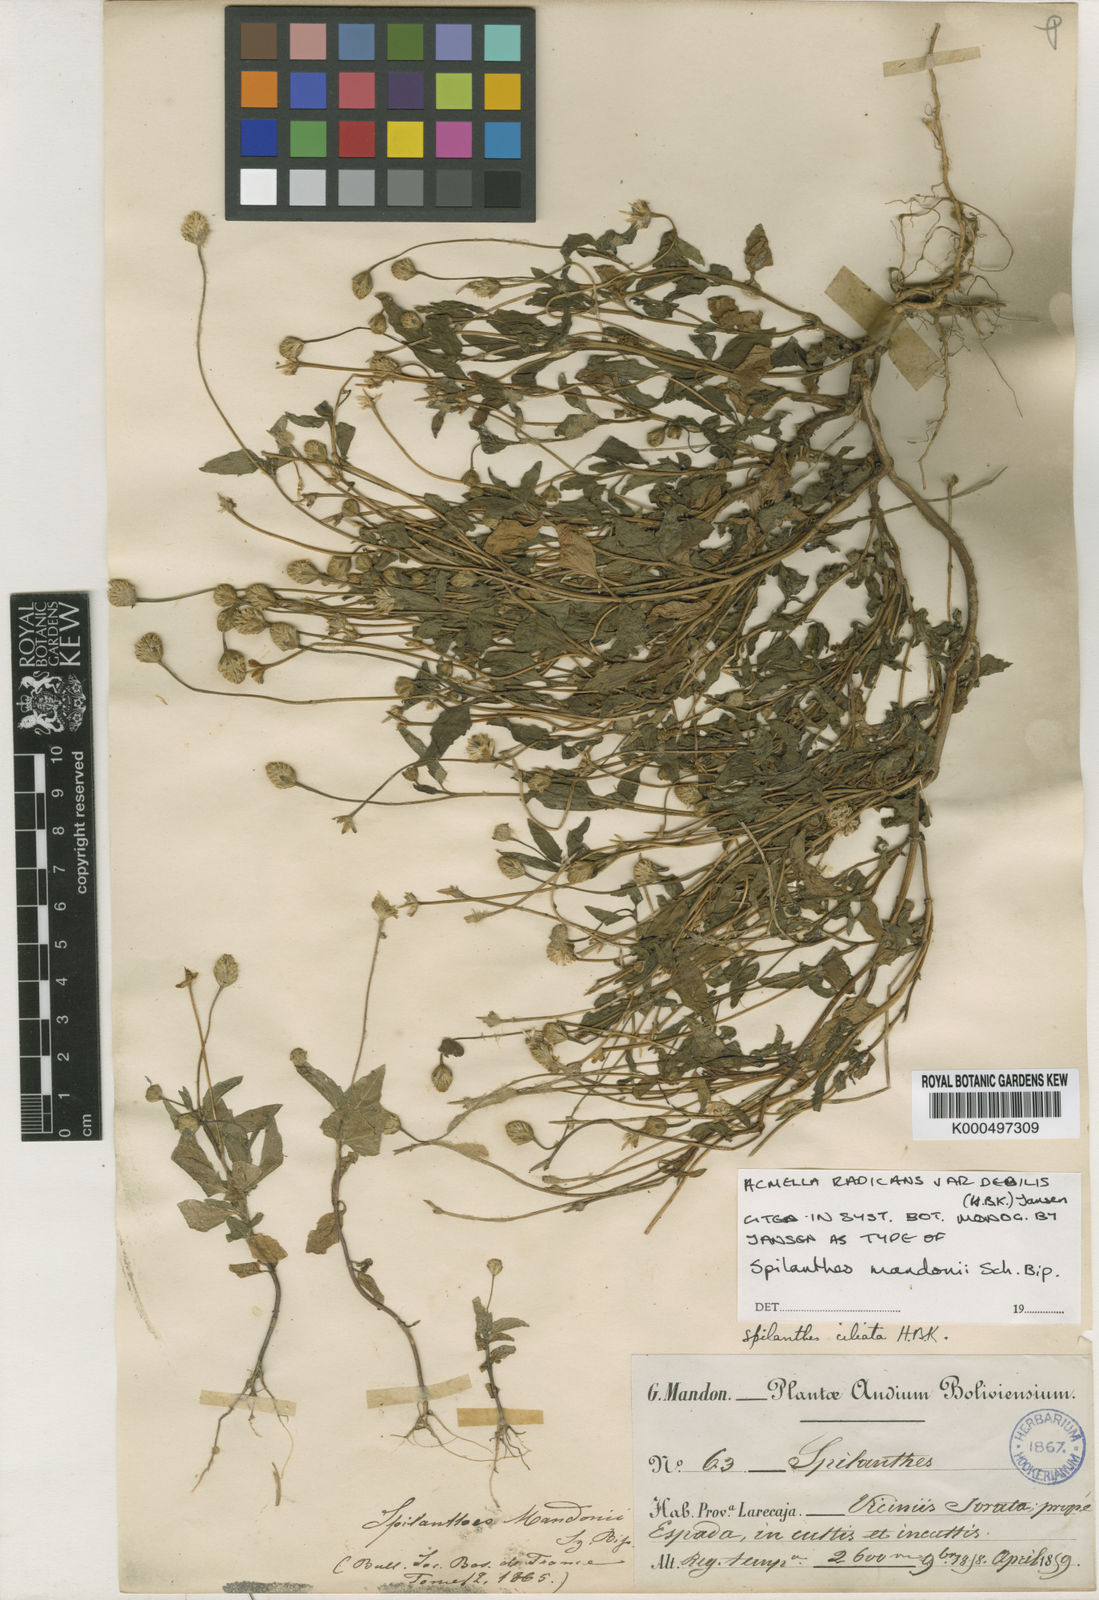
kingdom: Plantae
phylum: Tracheophyta
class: Magnoliopsida
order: Asterales
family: Asteraceae
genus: Acmella
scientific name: Acmella radicans
